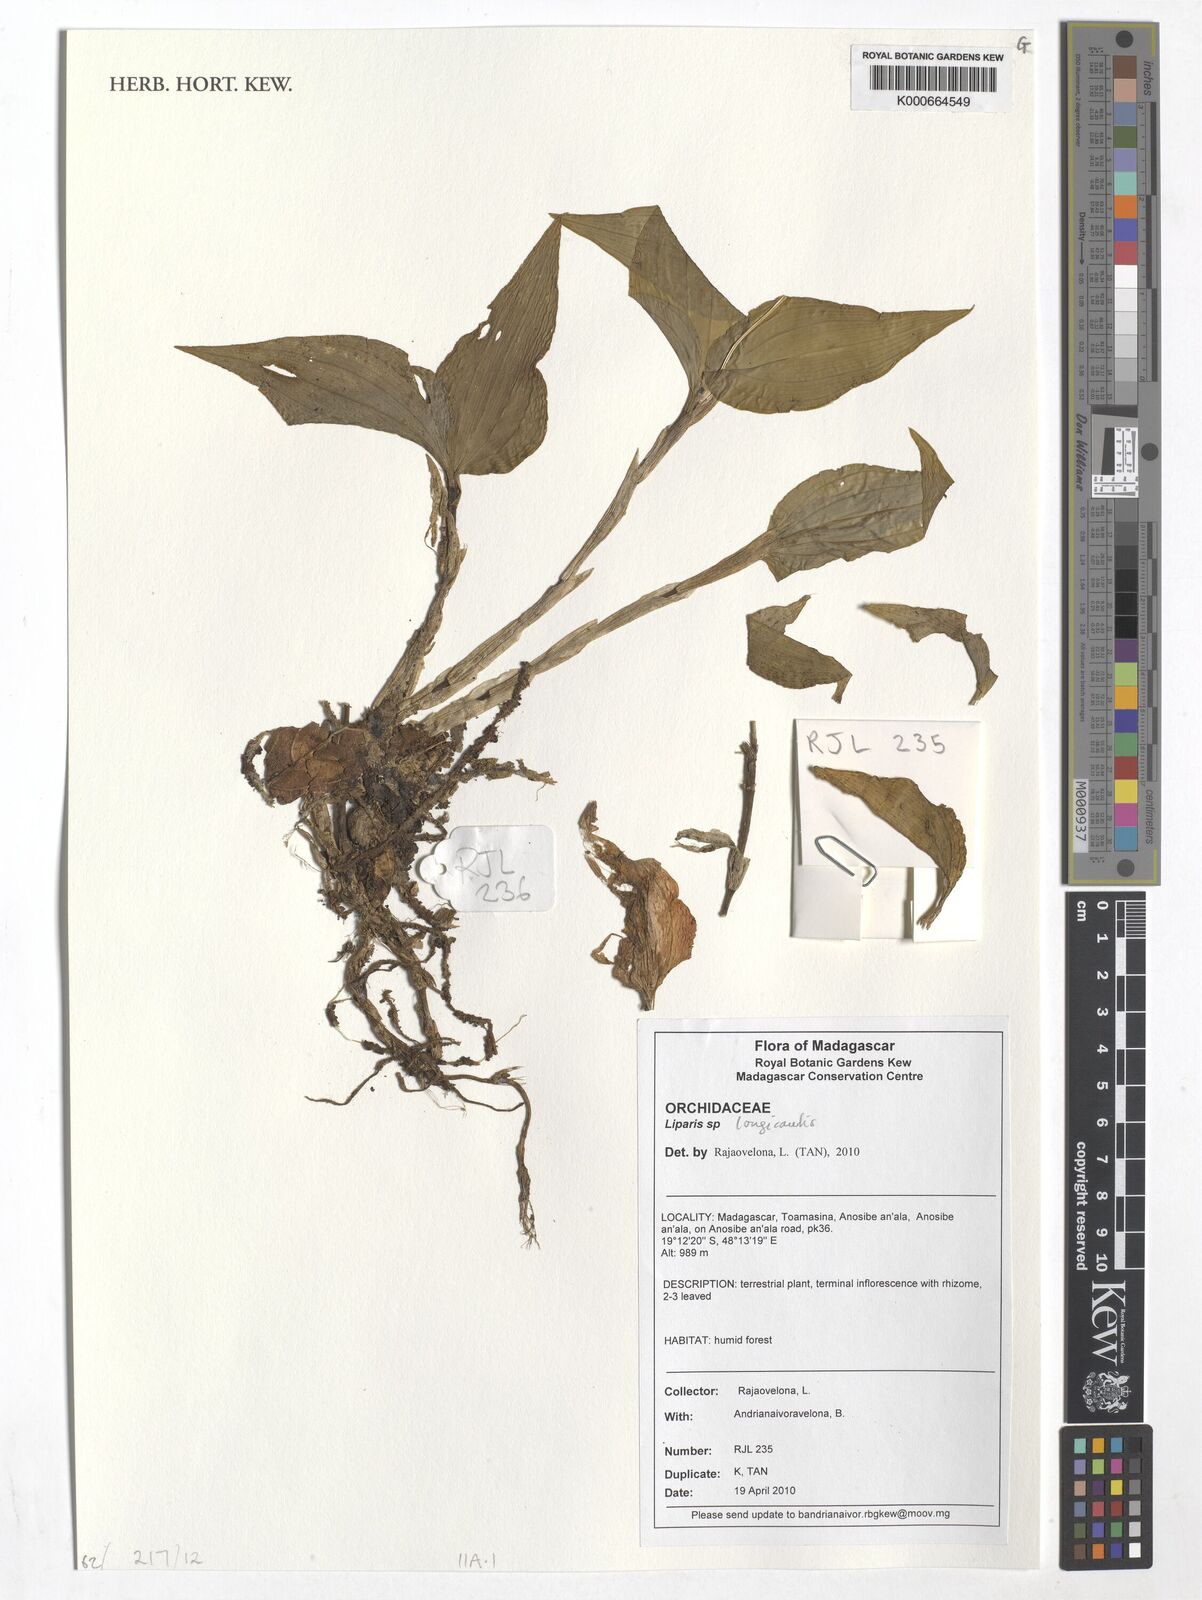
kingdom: Plantae
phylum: Tracheophyta
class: Liliopsida
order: Asparagales
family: Orchidaceae
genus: Liparis
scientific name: Liparis longicaulis
